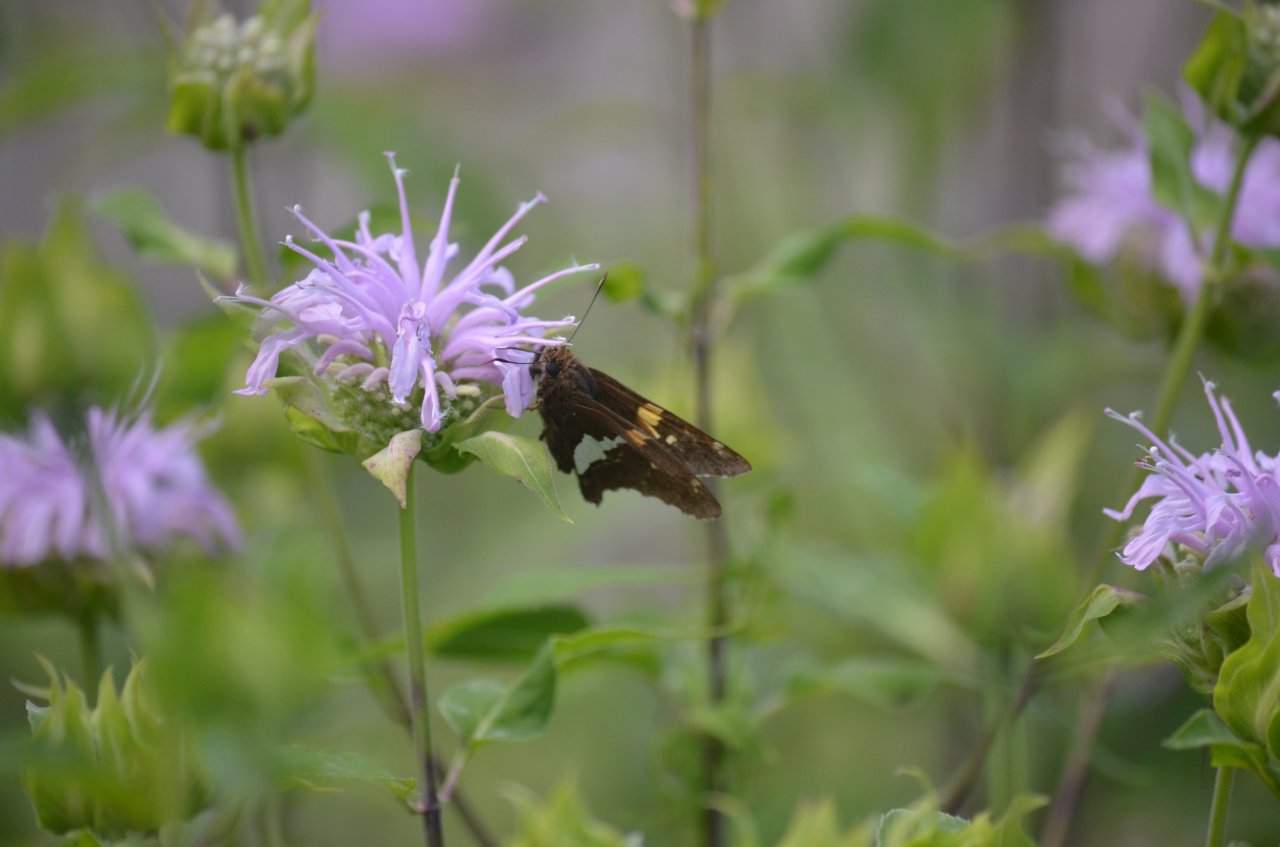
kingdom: Animalia
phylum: Arthropoda
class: Insecta
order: Lepidoptera
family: Hesperiidae
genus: Epargyreus
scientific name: Epargyreus clarus
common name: Silver-spotted Skipper
